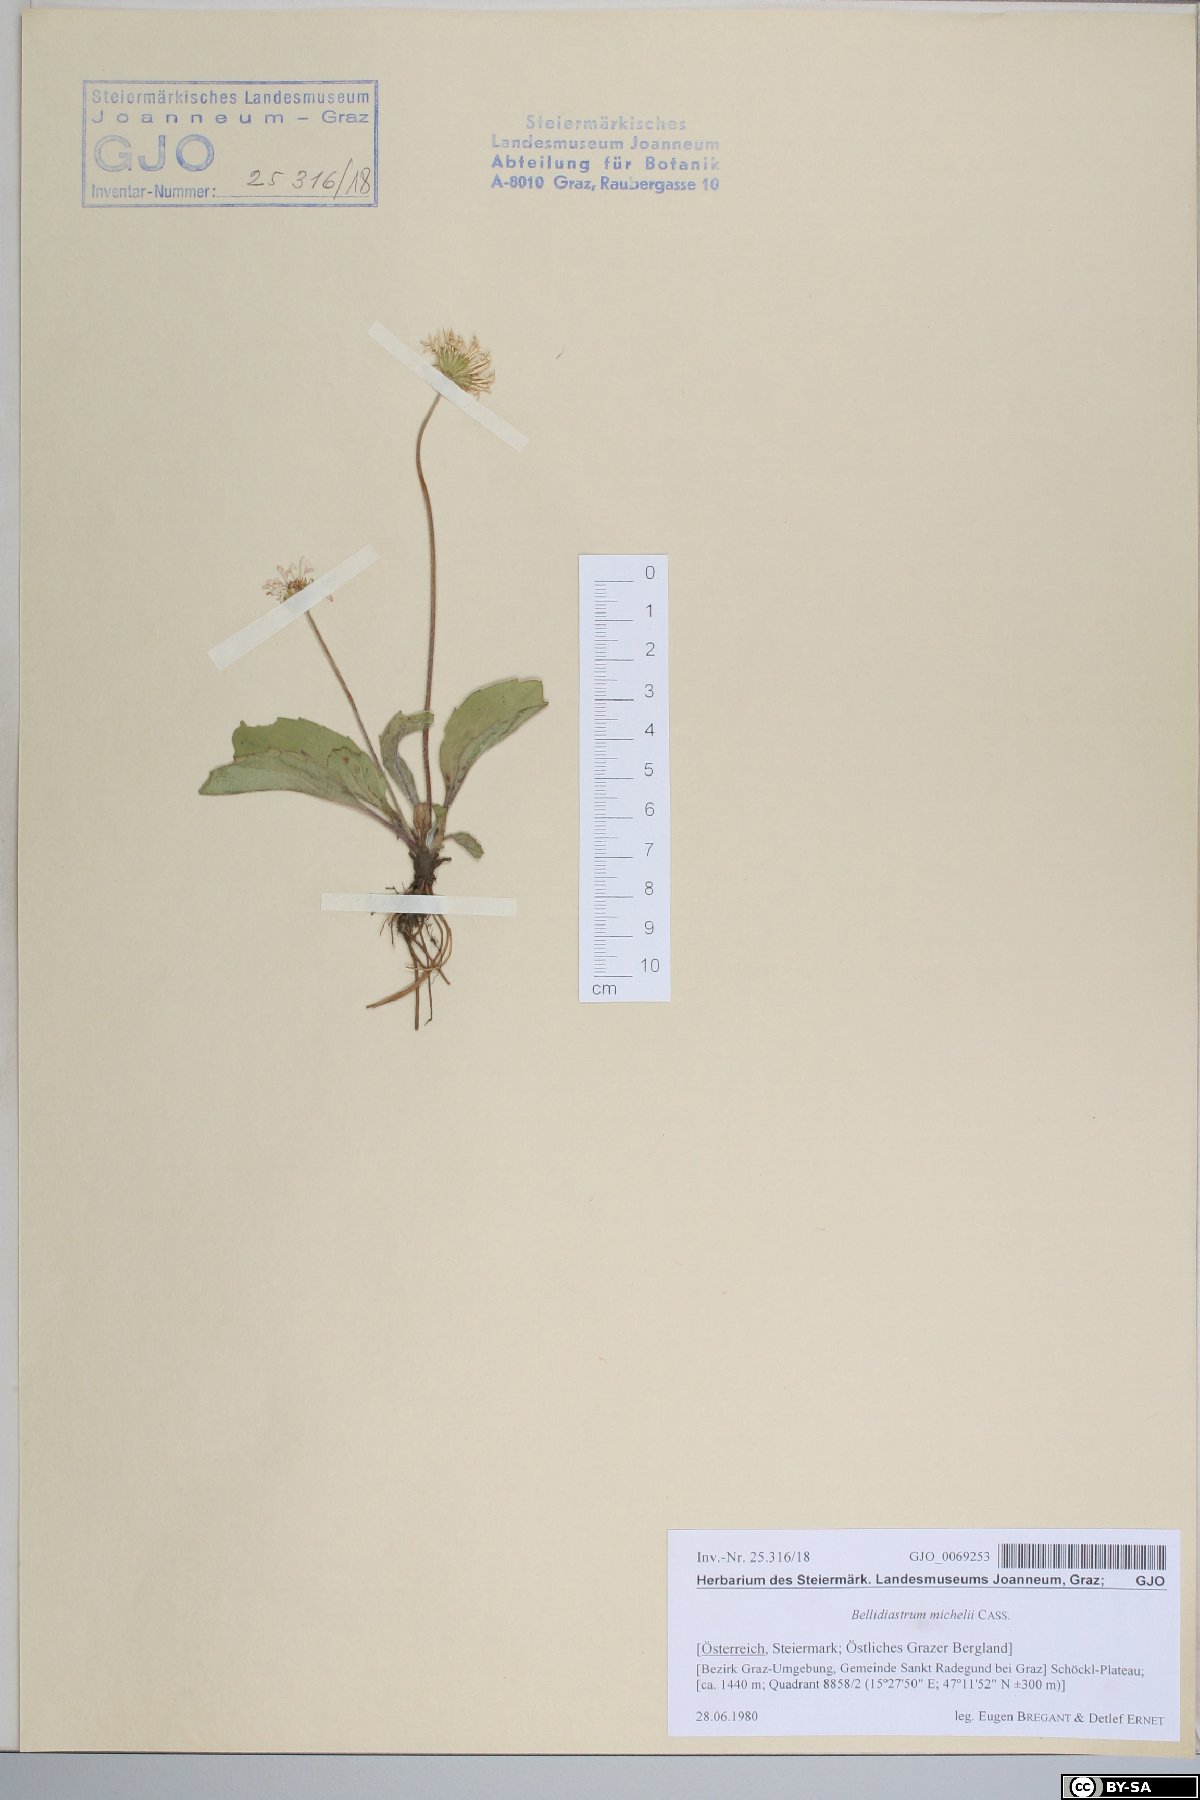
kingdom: Plantae
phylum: Tracheophyta
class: Magnoliopsida
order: Asterales
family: Asteraceae
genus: Bellidiastrum
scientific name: Bellidiastrum michelii
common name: Daisy-star aster
